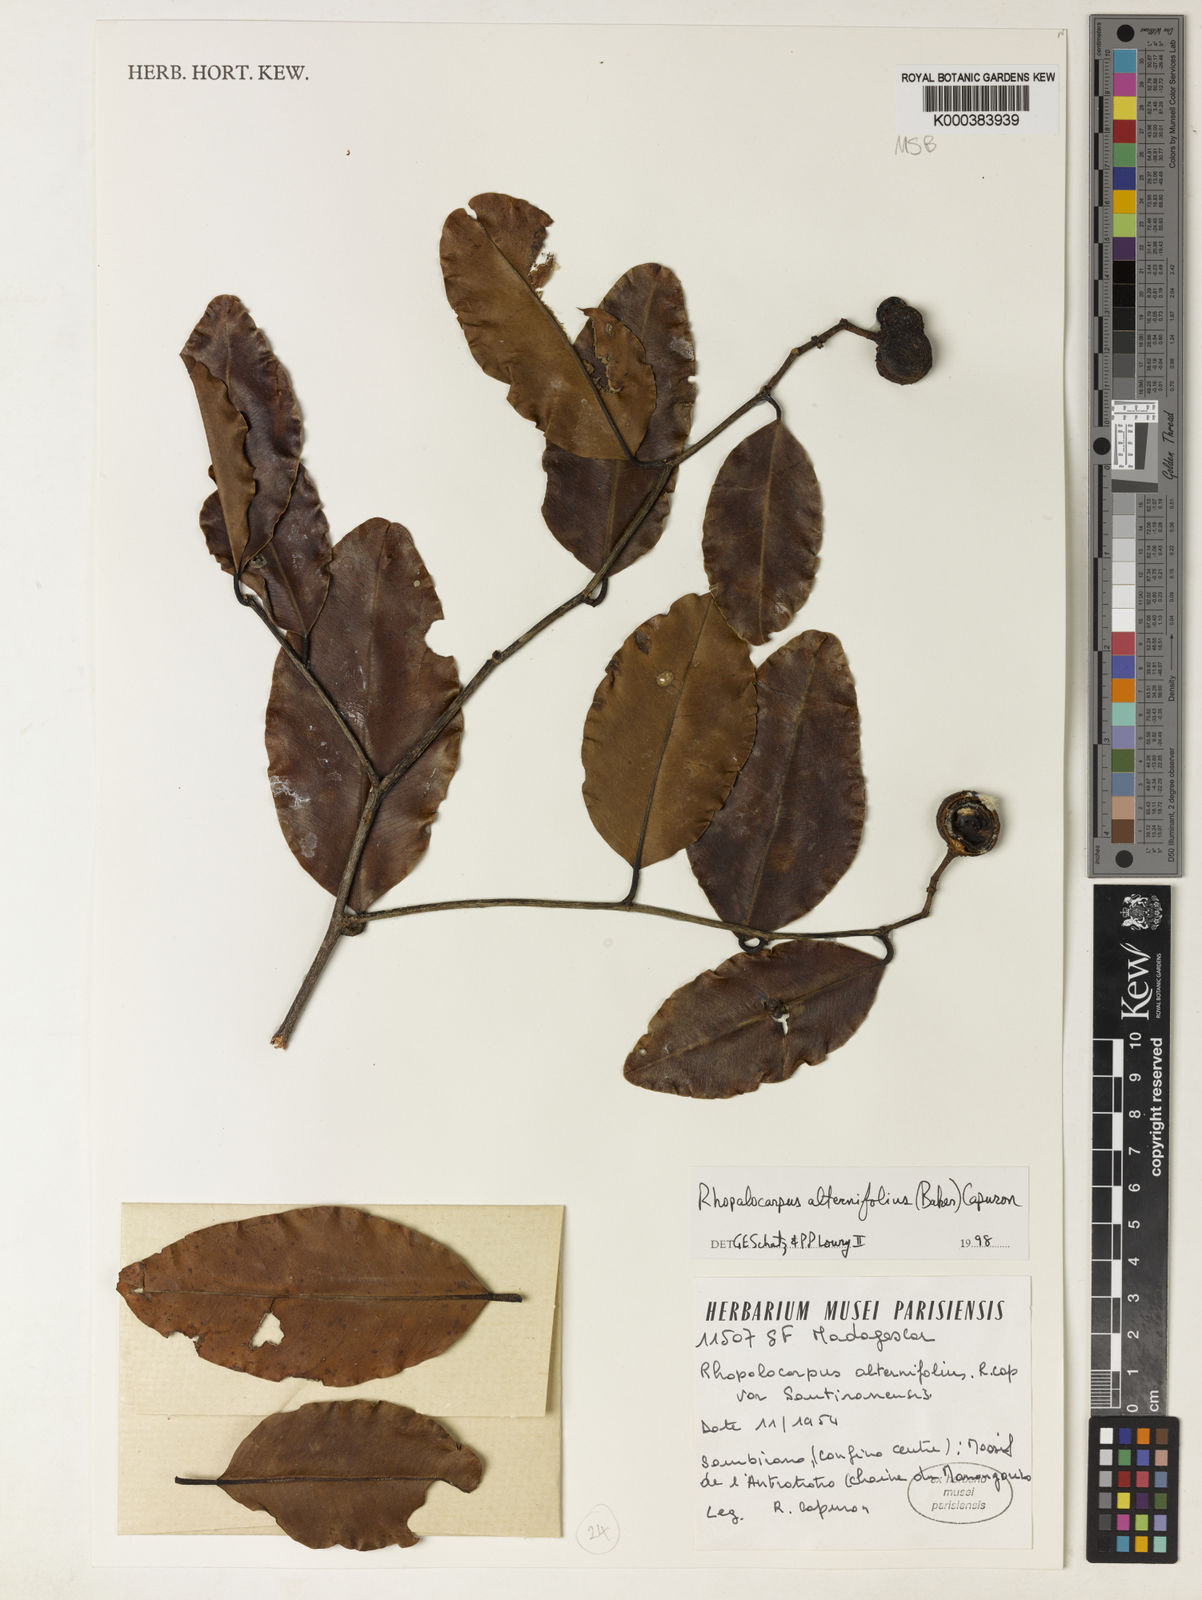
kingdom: Plantae
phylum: Tracheophyta
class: Magnoliopsida
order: Malvales
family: Sphaerosepalaceae
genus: Rhopalocarpus
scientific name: Rhopalocarpus alternifolius
